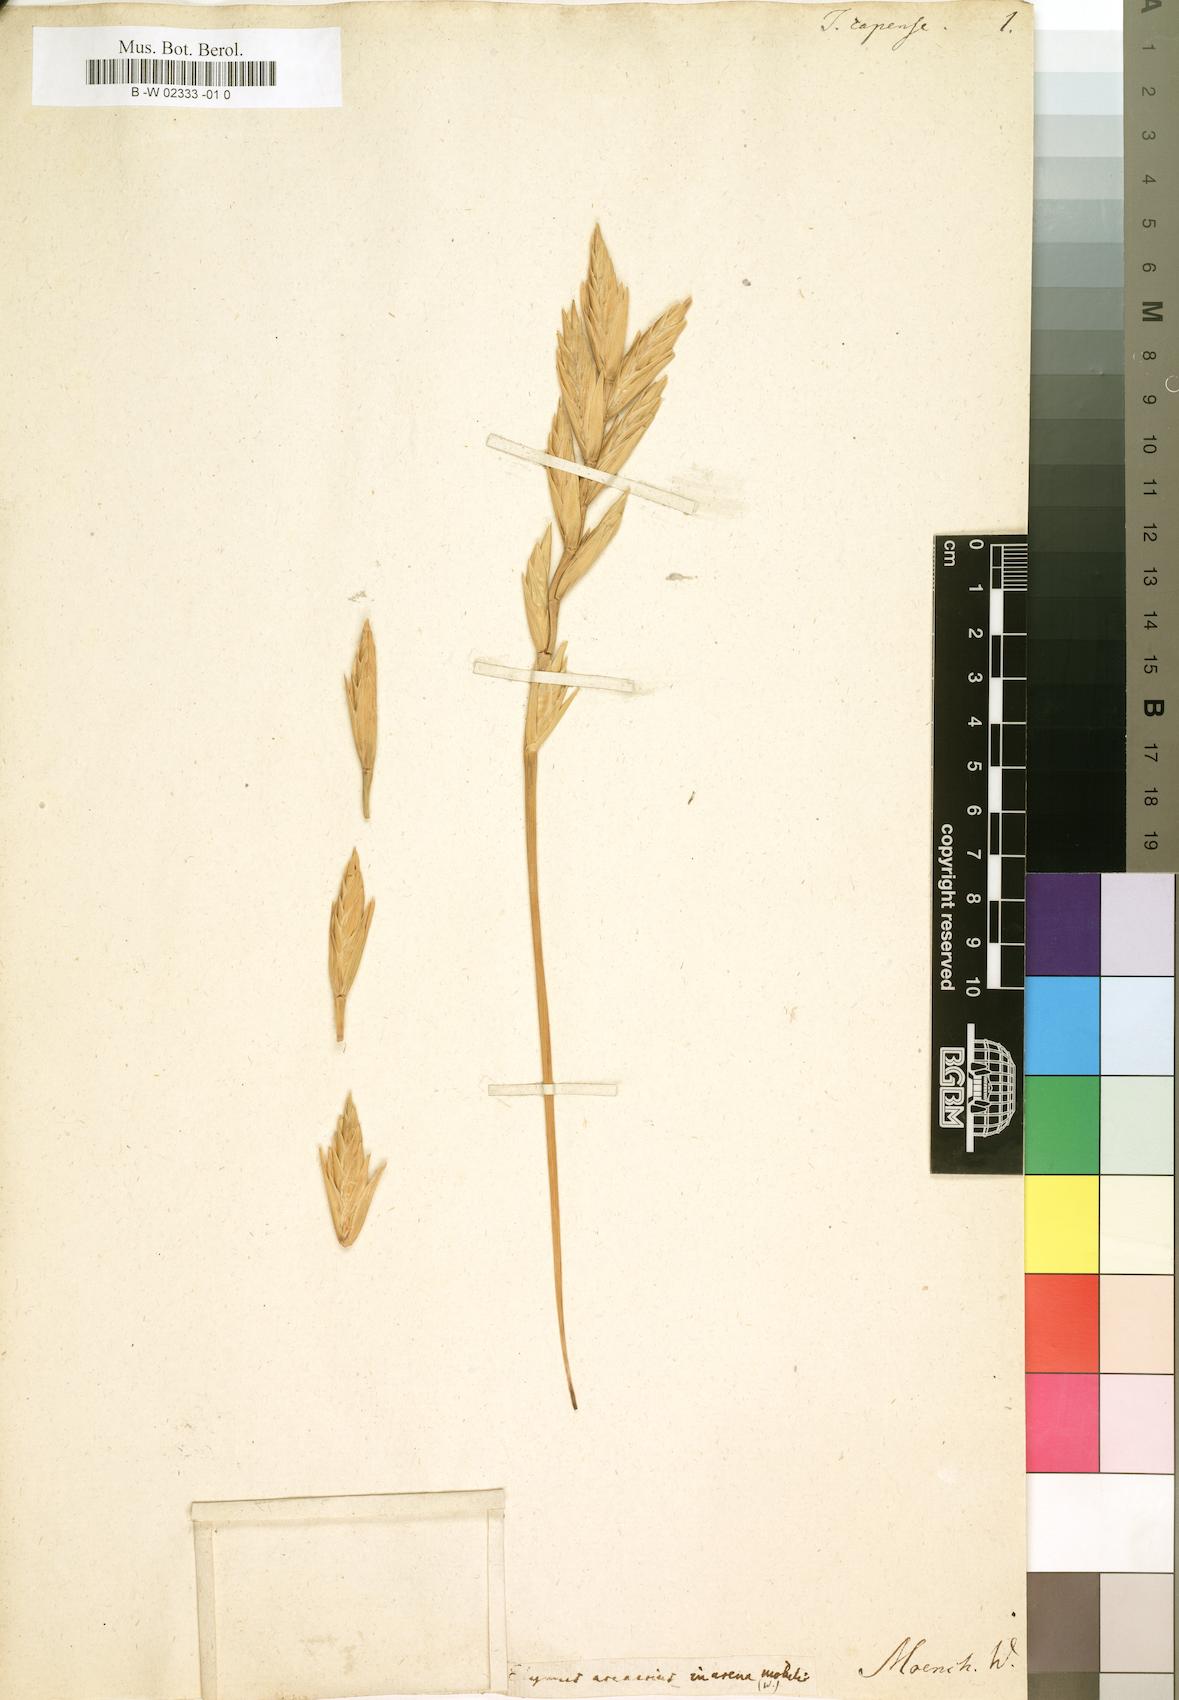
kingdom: Plantae
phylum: Tracheophyta
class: Liliopsida
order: Poales
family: Poaceae
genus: Elymus
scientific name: Elymus
